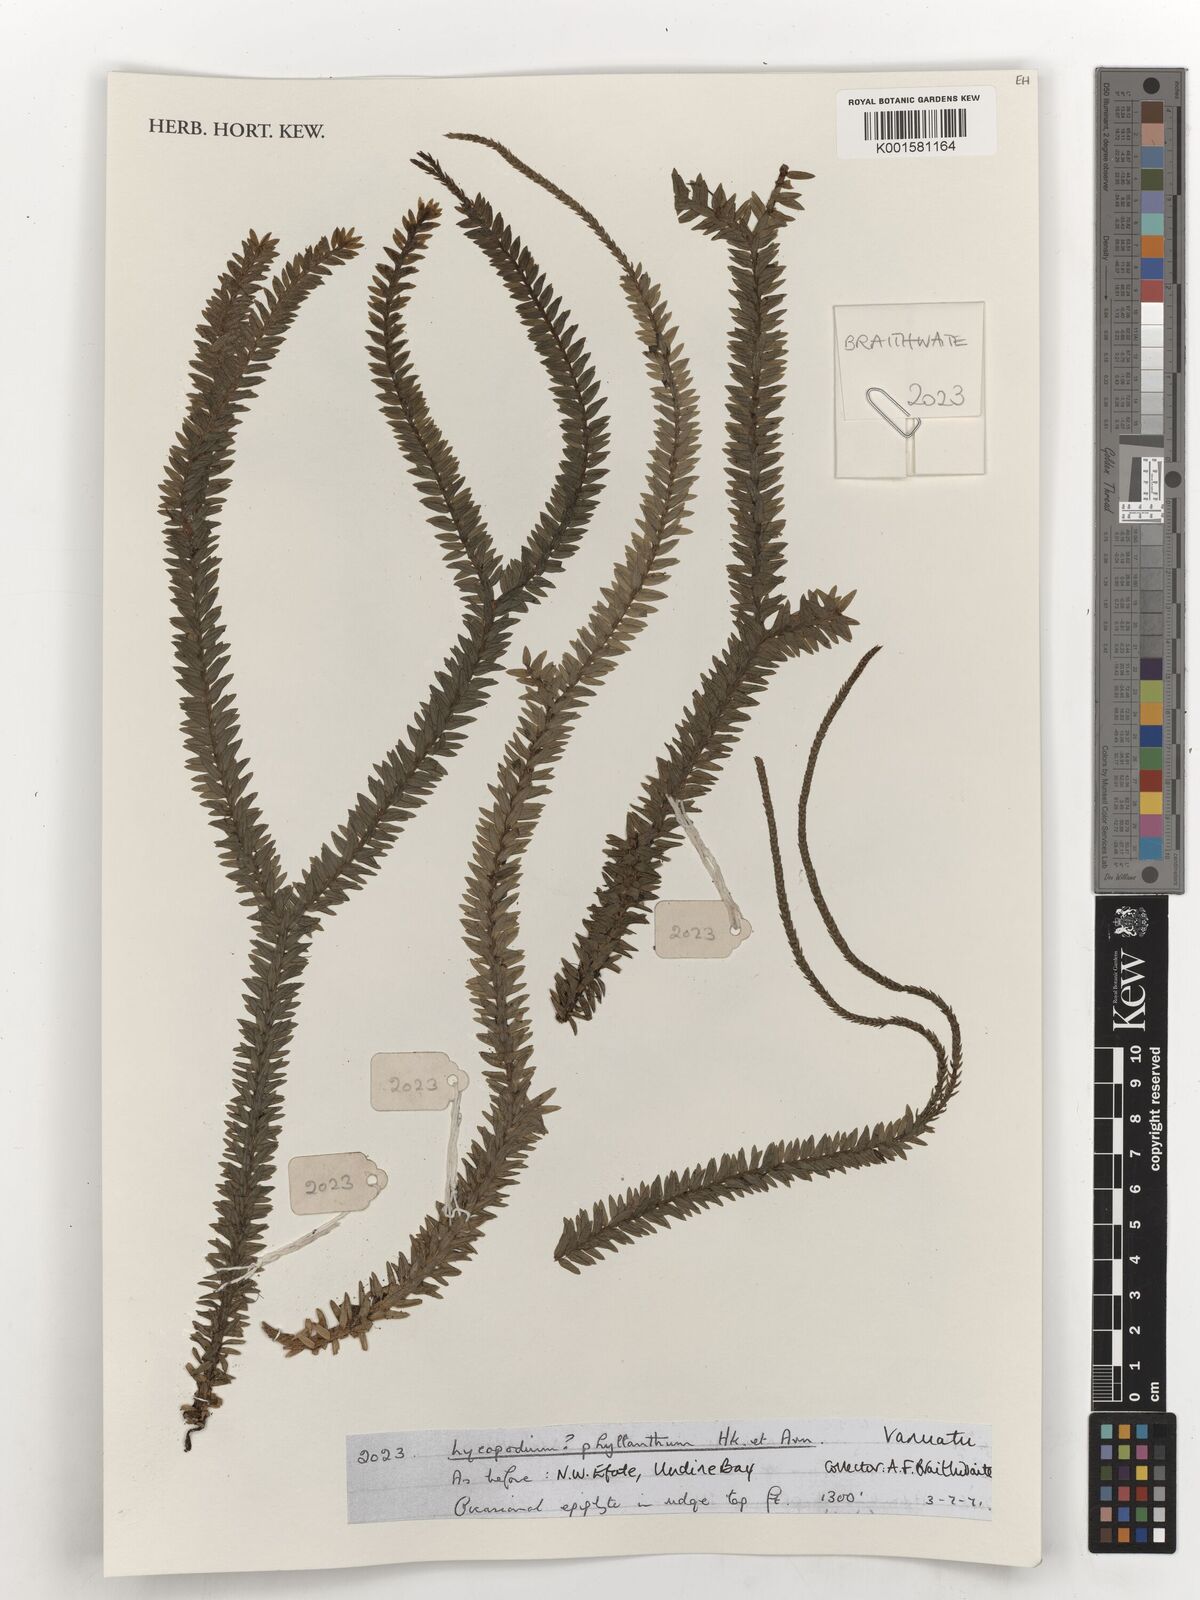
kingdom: Plantae
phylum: Tracheophyta
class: Lycopodiopsida
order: Lycopodiales
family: Lycopodiaceae
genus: Phlegmariurus
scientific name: Phlegmariurus phyllanthus
